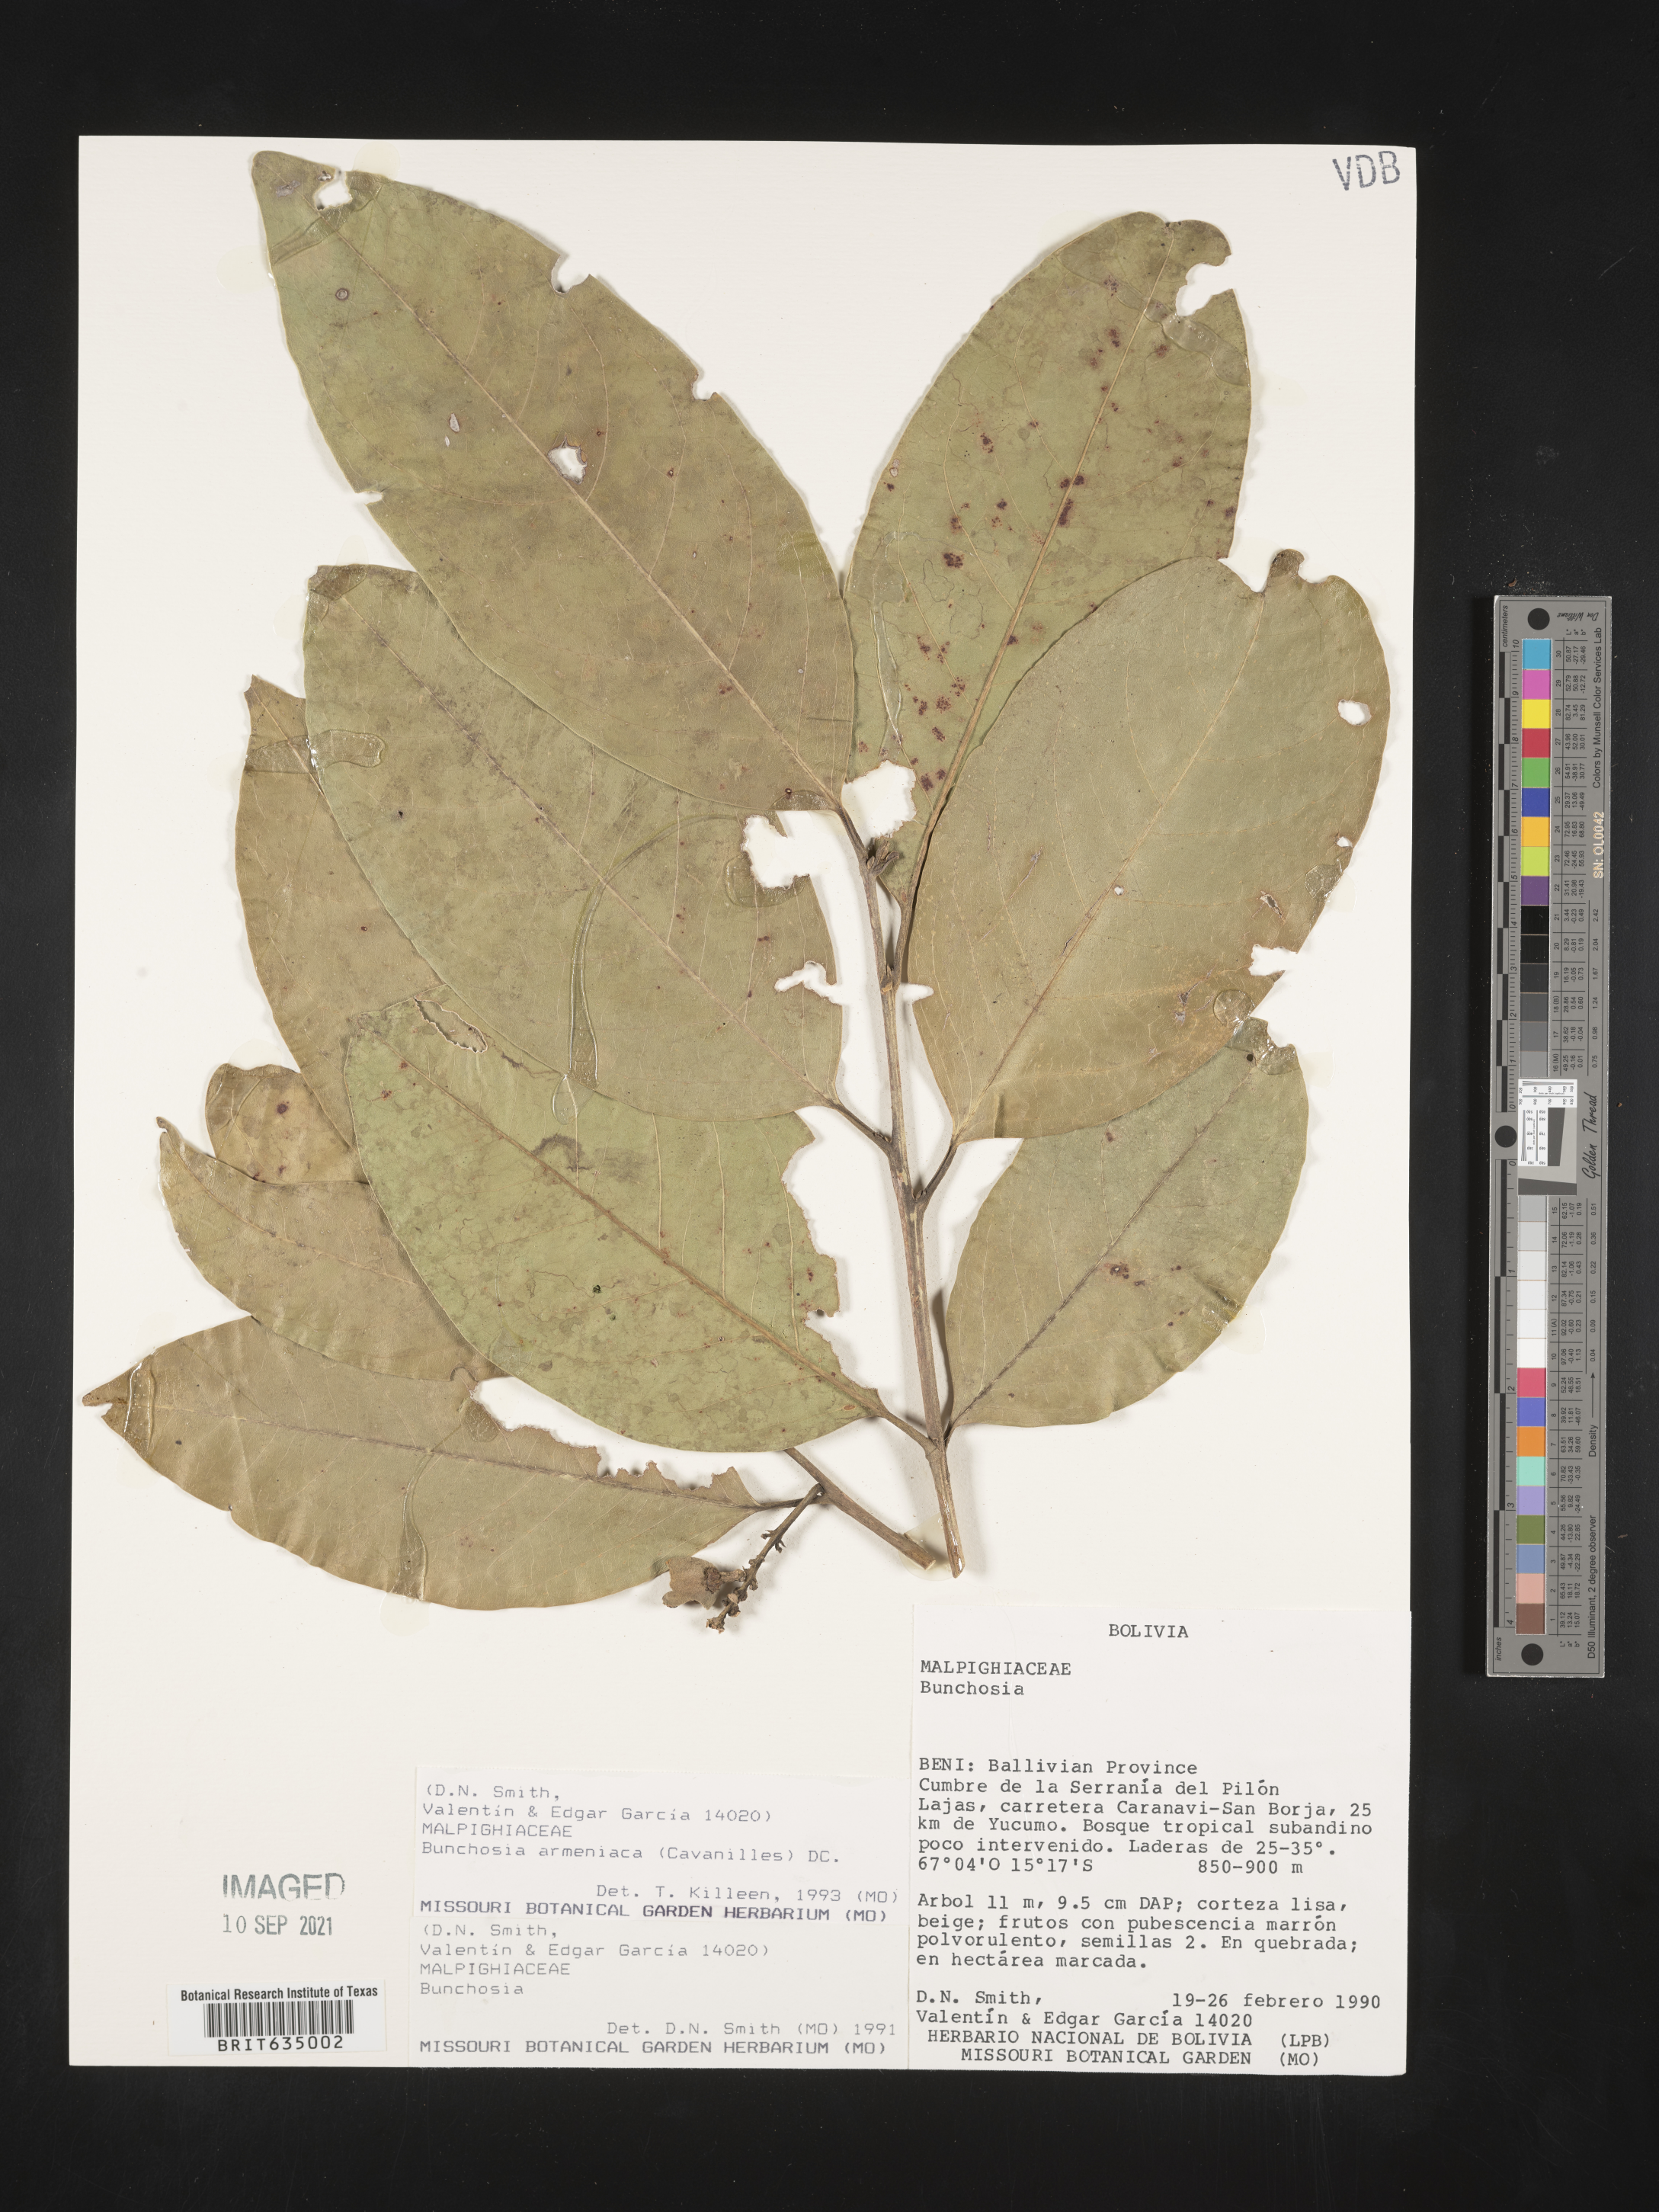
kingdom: Plantae
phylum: Tracheophyta
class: Magnoliopsida
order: Malpighiales
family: Malpighiaceae
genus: Bunchosia
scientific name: Bunchosia
